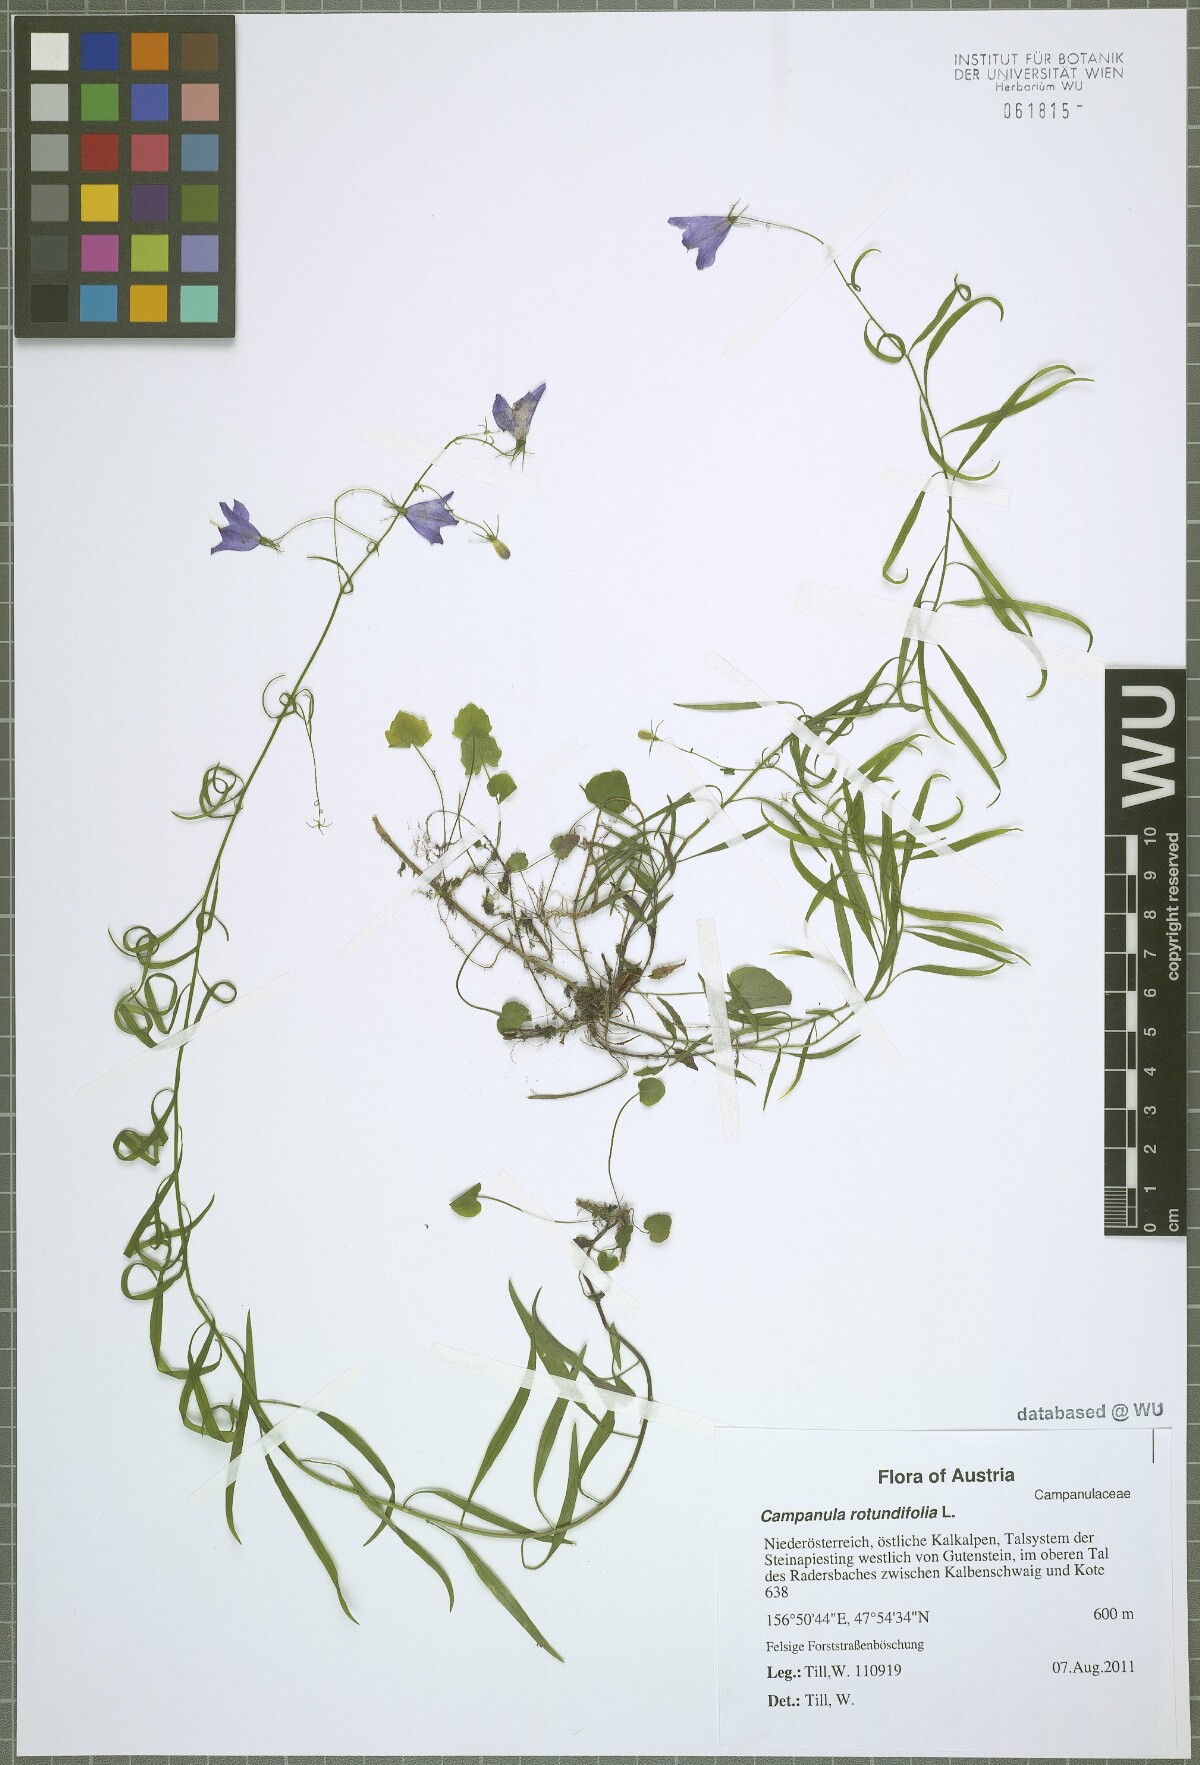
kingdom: Plantae
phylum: Tracheophyta
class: Magnoliopsida
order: Asterales
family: Campanulaceae
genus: Campanula
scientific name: Campanula rotundifolia
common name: Harebell
